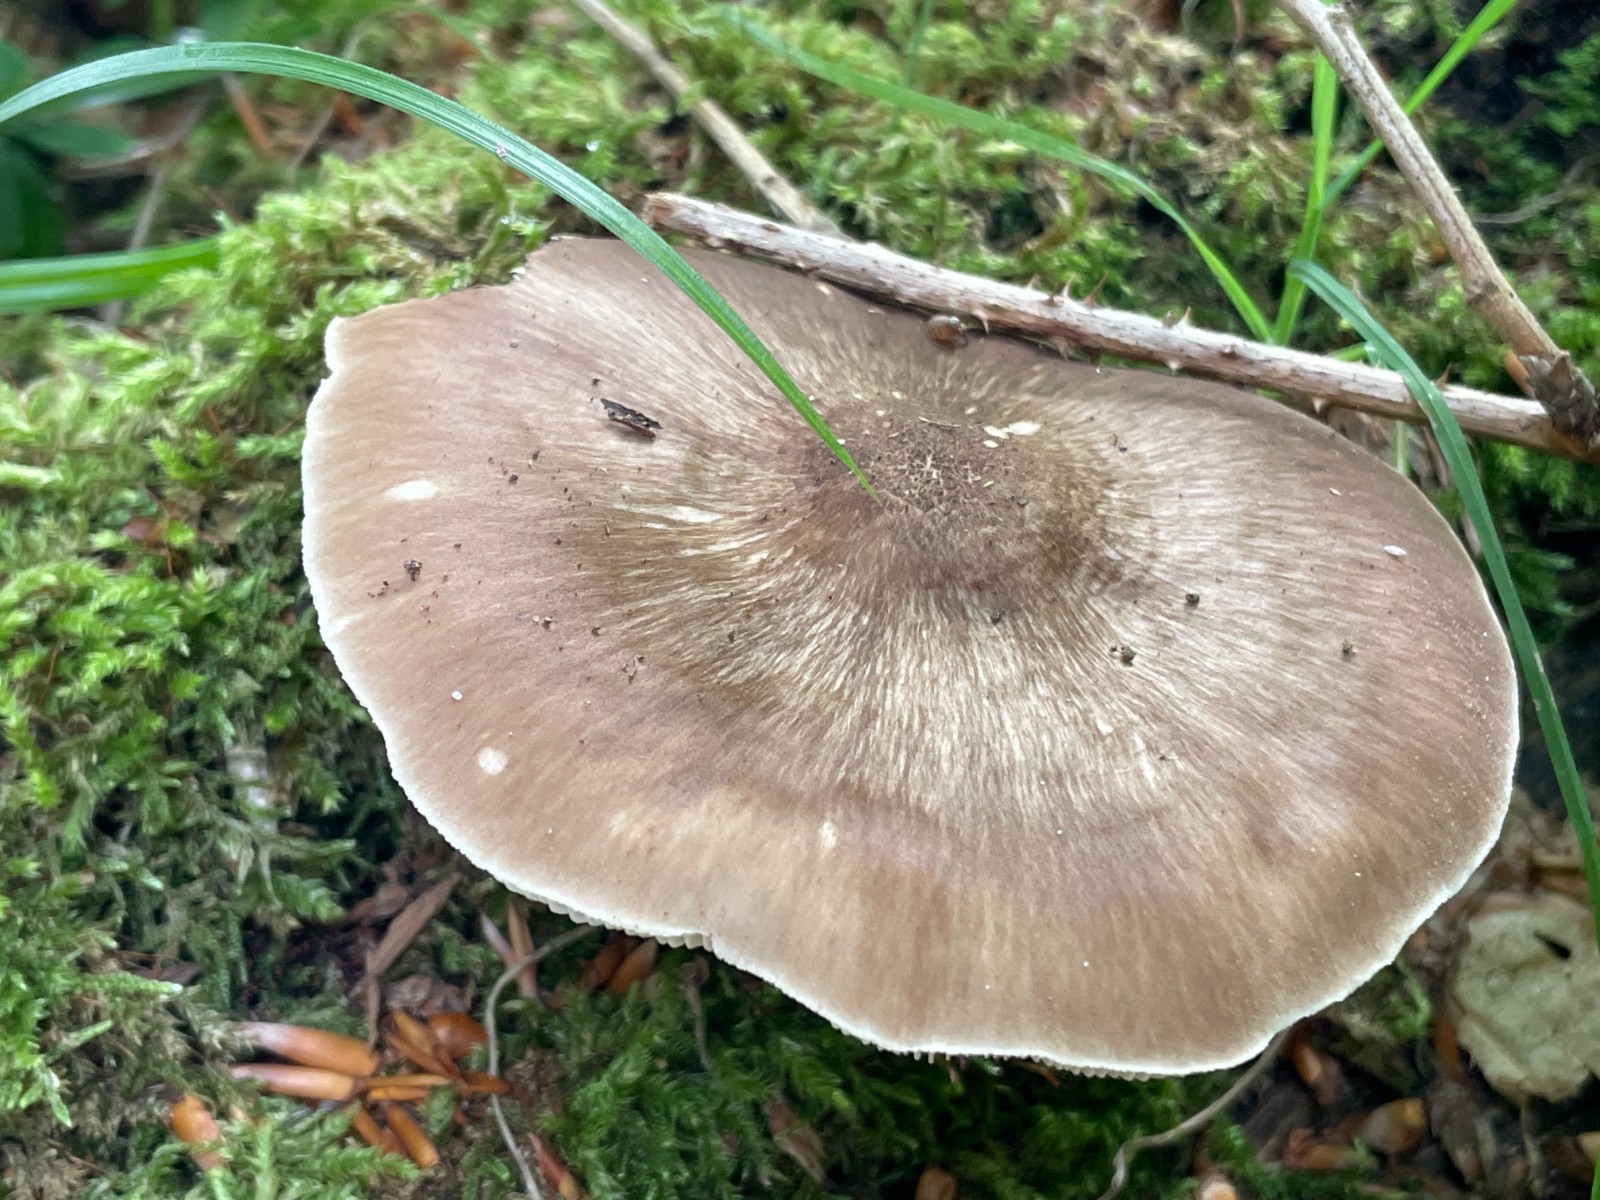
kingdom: Fungi
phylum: Basidiomycota
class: Agaricomycetes
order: Agaricales
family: Pluteaceae
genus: Pluteus
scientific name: Pluteus cervinus
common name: sodfarvet skærmhat
